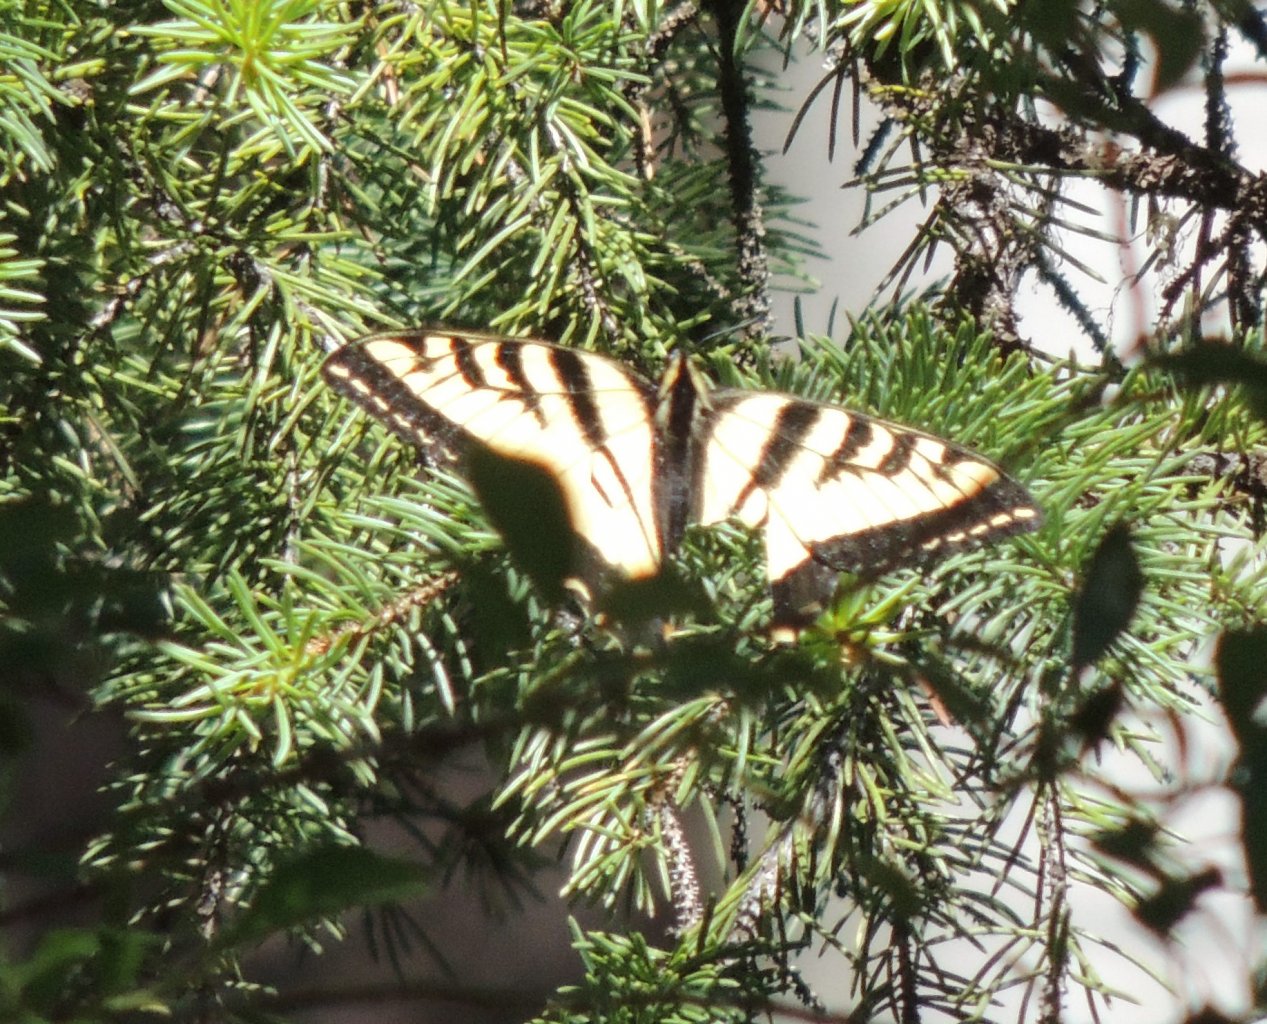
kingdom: Animalia
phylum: Arthropoda
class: Insecta
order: Lepidoptera
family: Papilionidae
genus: Pterourus
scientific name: Pterourus rutulus
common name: Western Tiger Swallowtail
